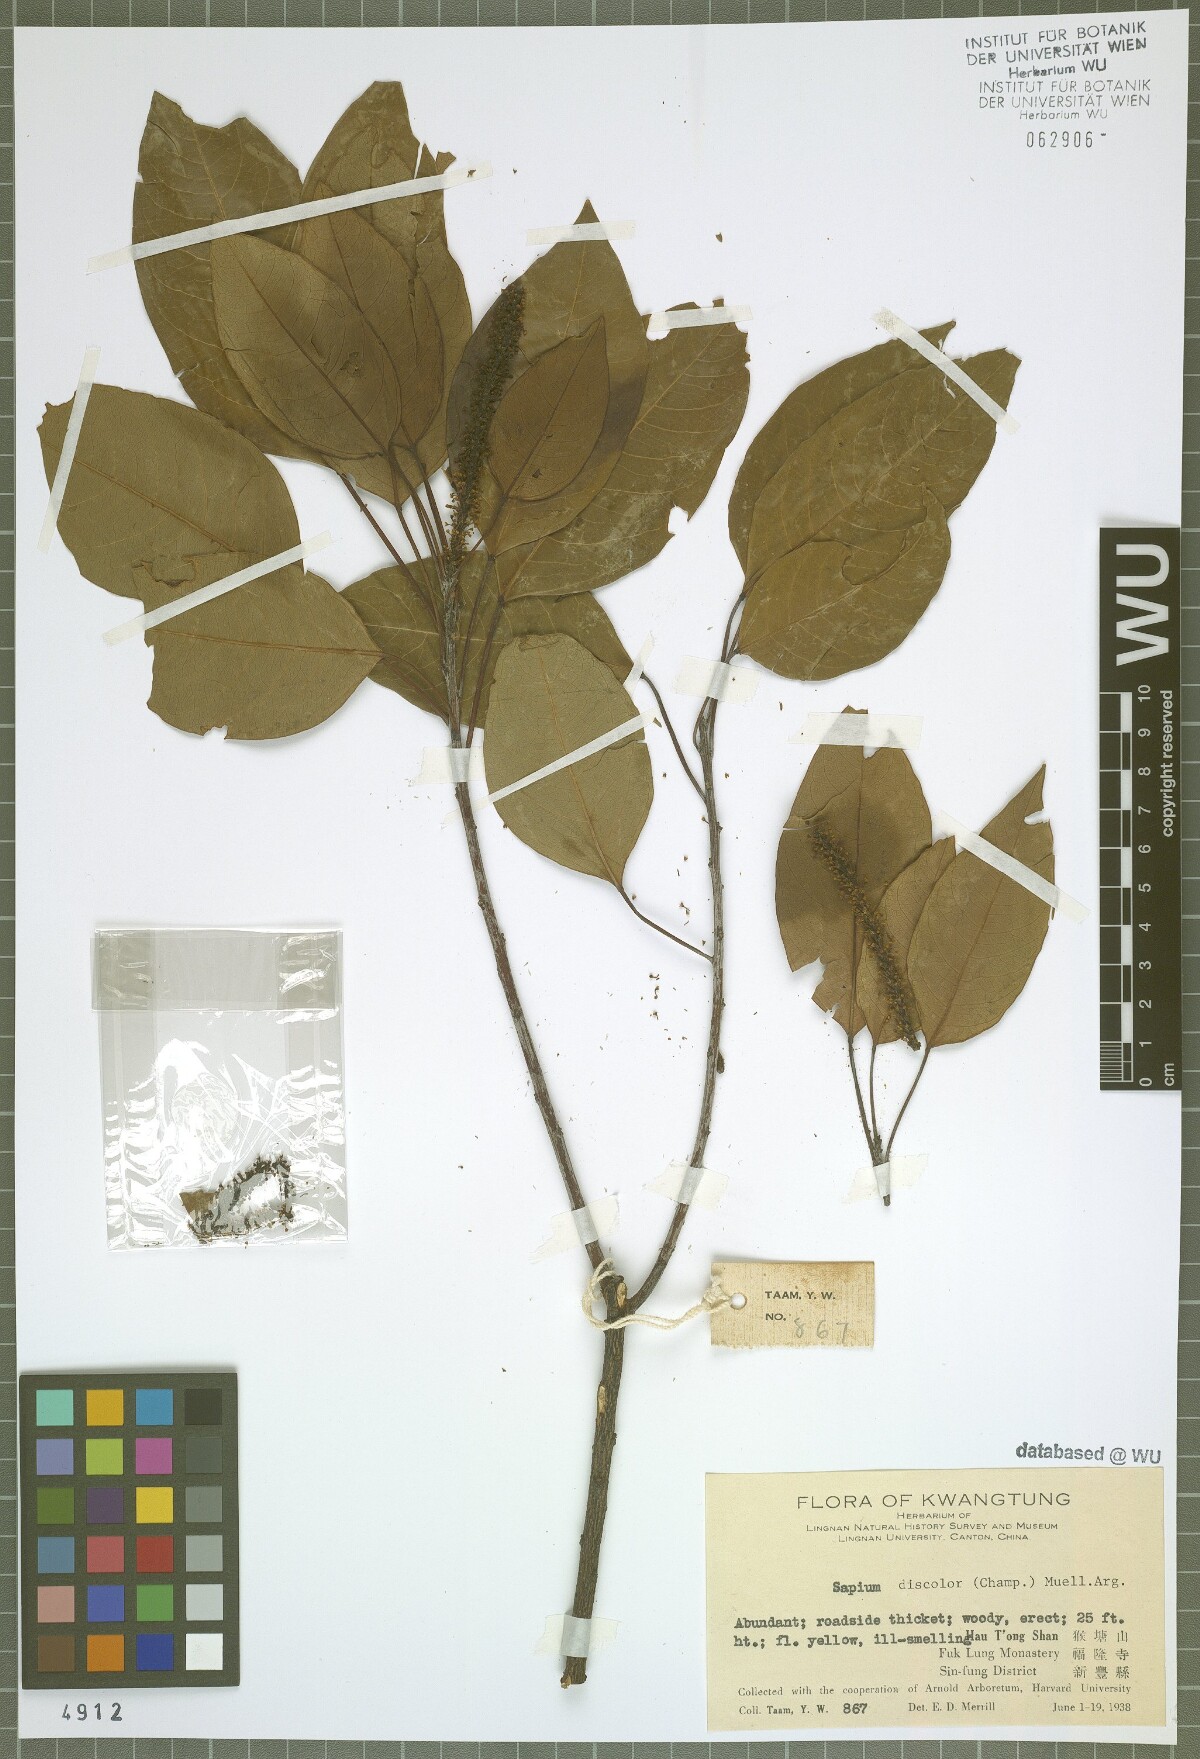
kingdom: Plantae
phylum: Tracheophyta
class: Magnoliopsida
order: Malpighiales
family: Euphorbiaceae
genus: Triadica
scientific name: Triadica cochinchinensis
